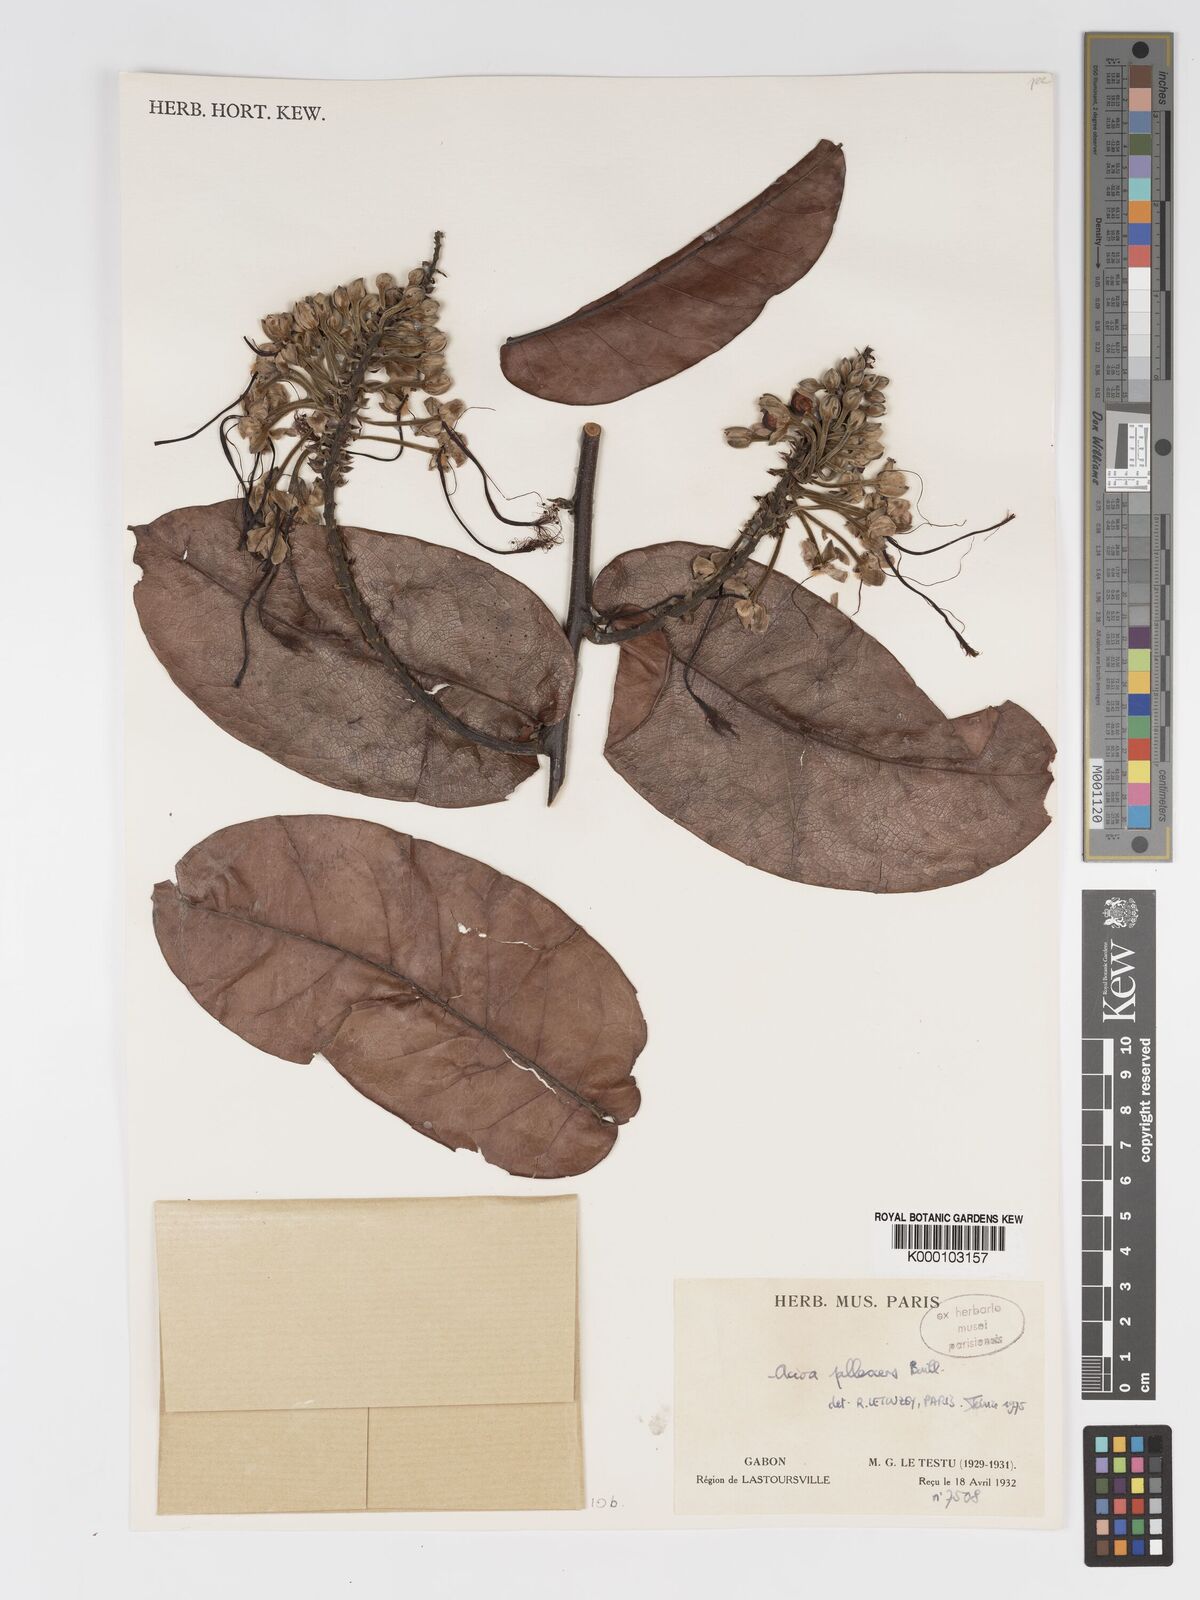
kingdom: Plantae
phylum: Tracheophyta
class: Magnoliopsida
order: Malpighiales
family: Chrysobalanaceae
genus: Dactyladenia
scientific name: Dactyladenia pallescens
